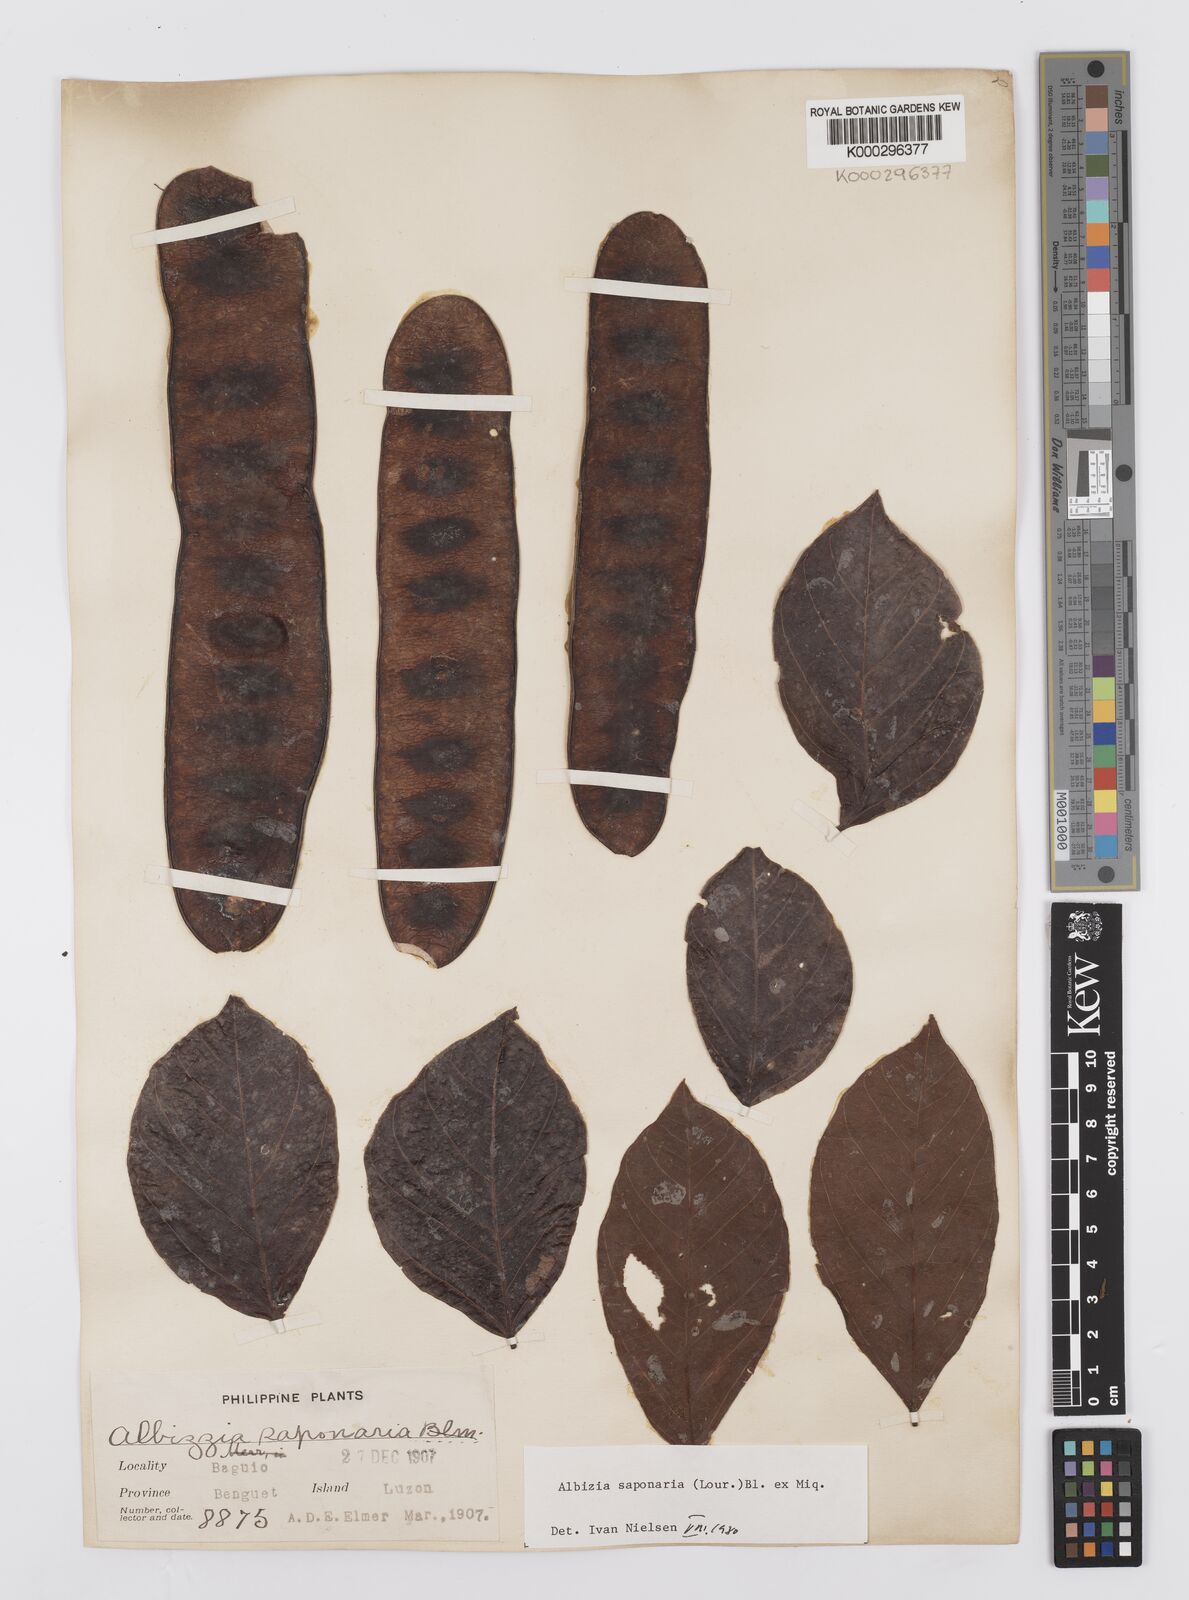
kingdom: Plantae
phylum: Tracheophyta
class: Magnoliopsida
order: Fabales
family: Fabaceae
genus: Albizia
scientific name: Albizia saponaria
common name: Whiteflower albizia
